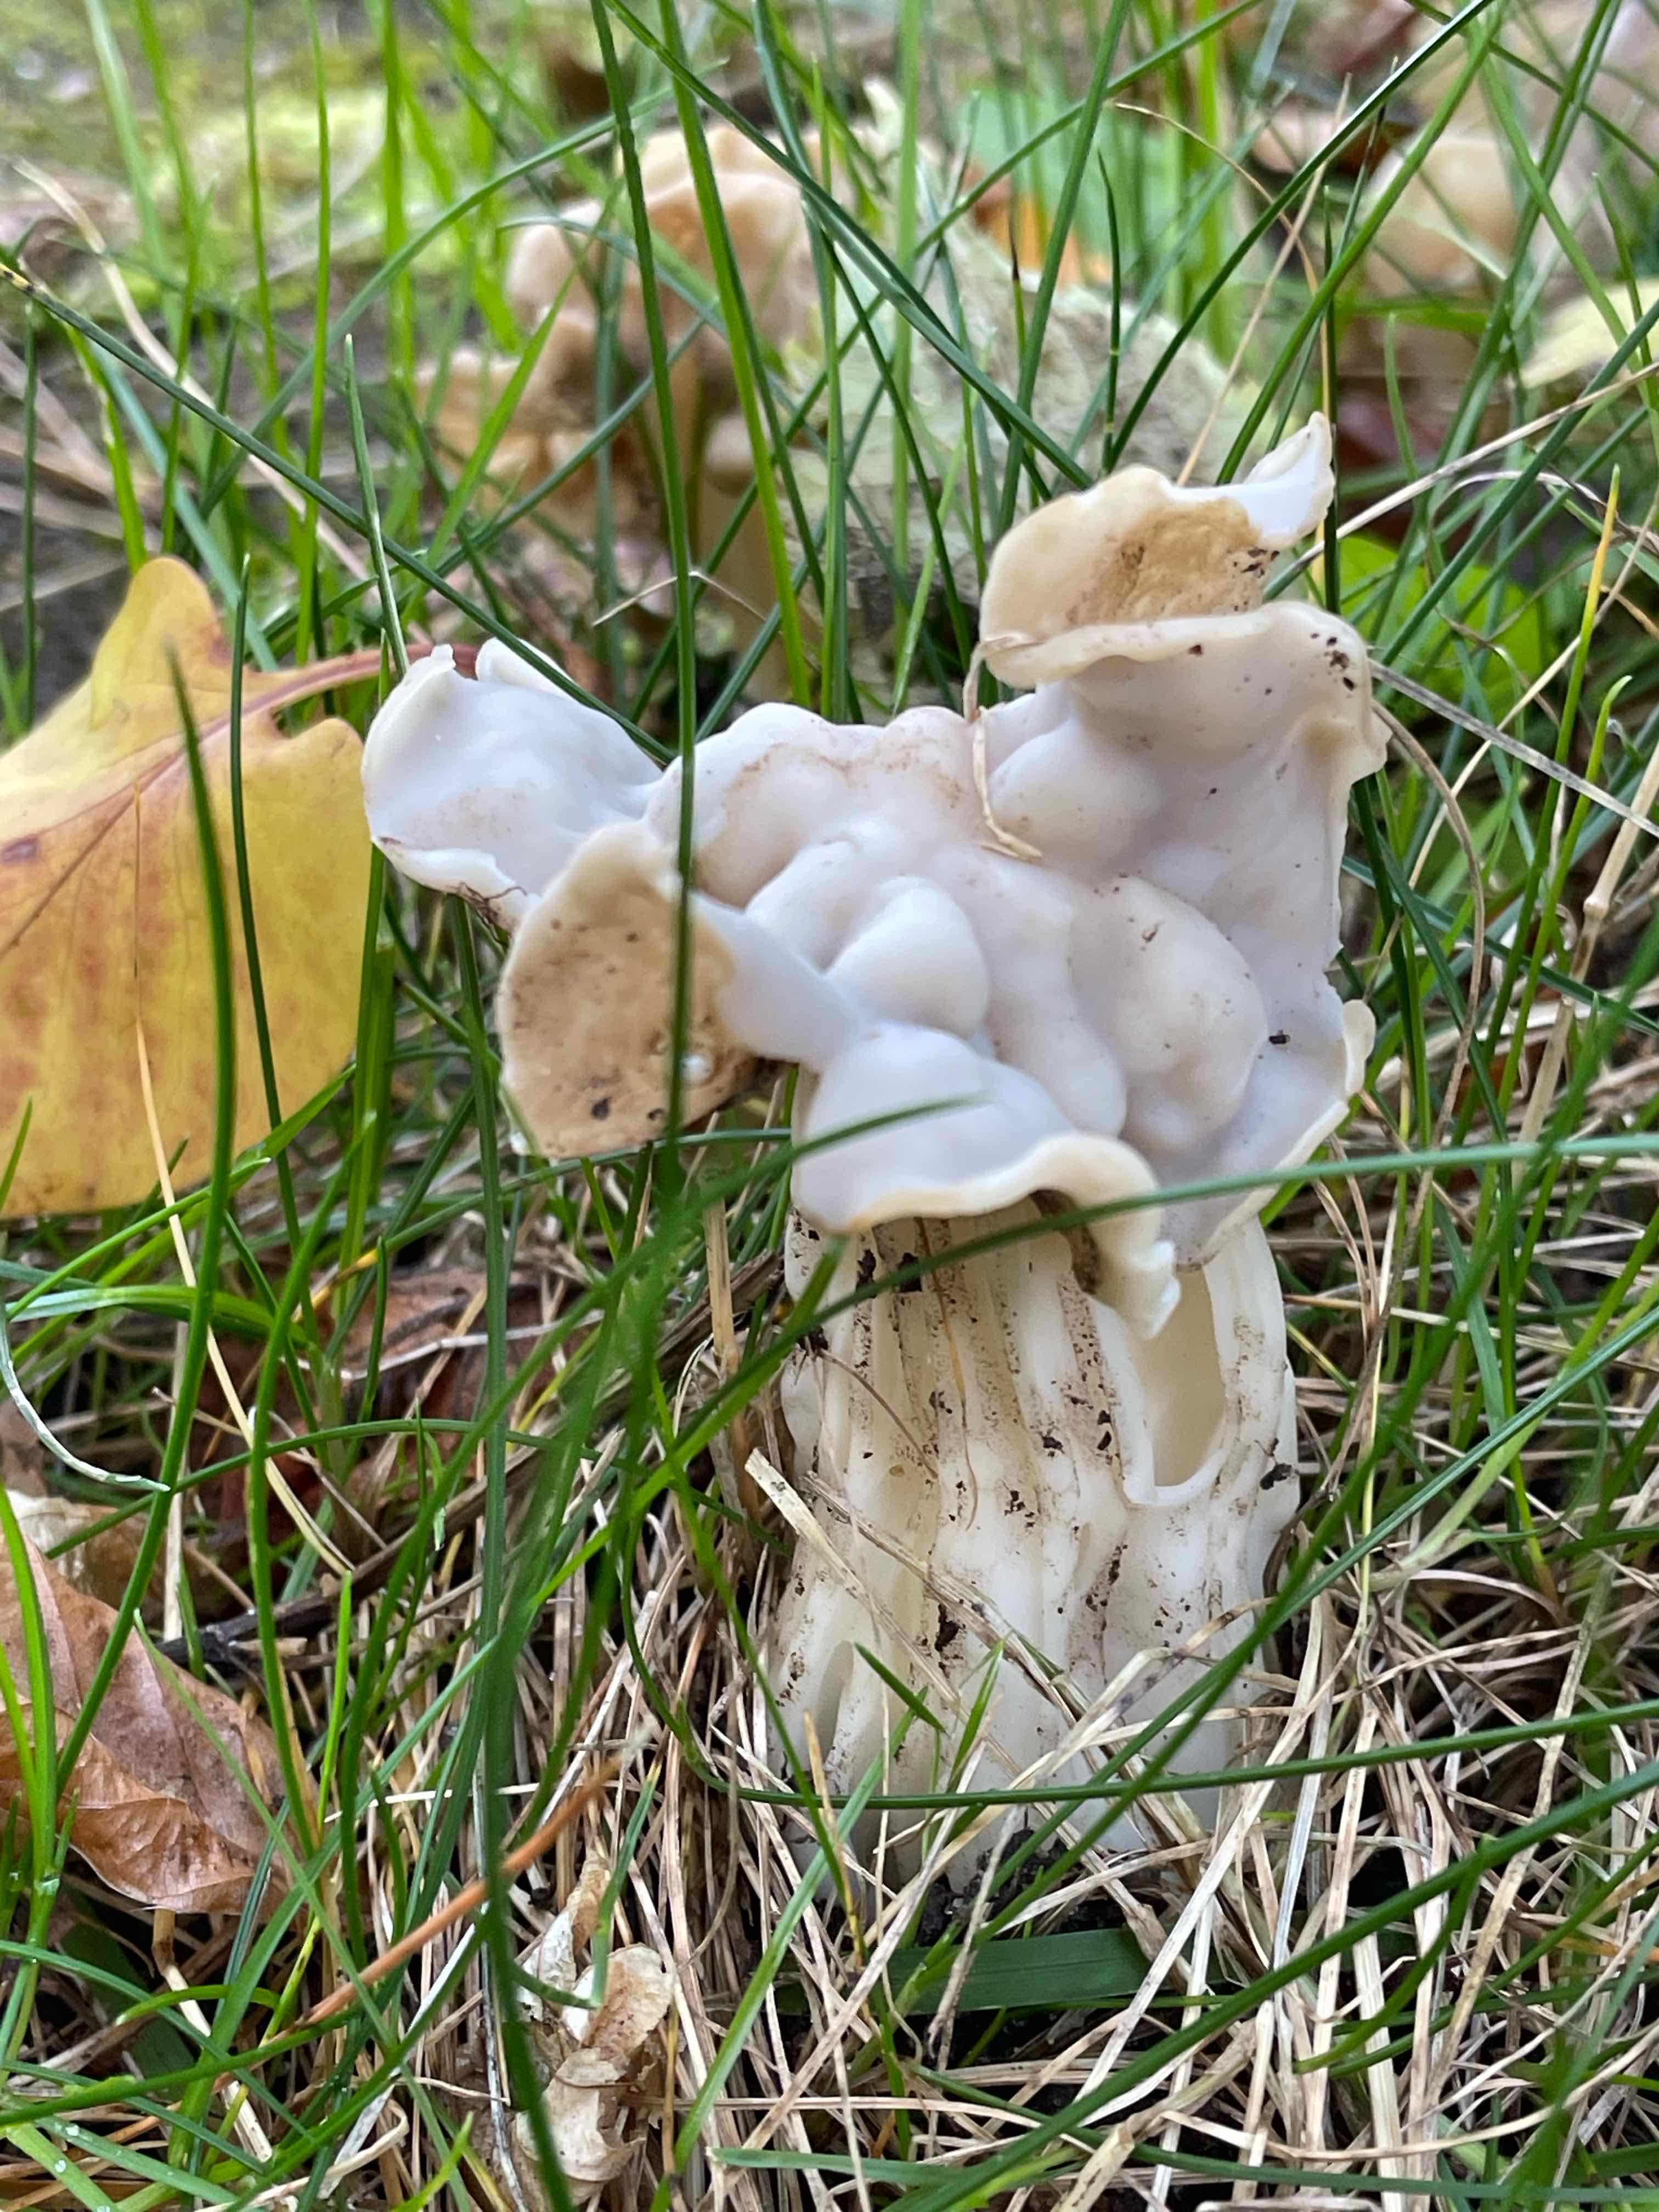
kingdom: Fungi
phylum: Ascomycota
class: Pezizomycetes
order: Pezizales
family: Helvellaceae
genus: Helvella
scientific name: Helvella crispa
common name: kruset foldhat
